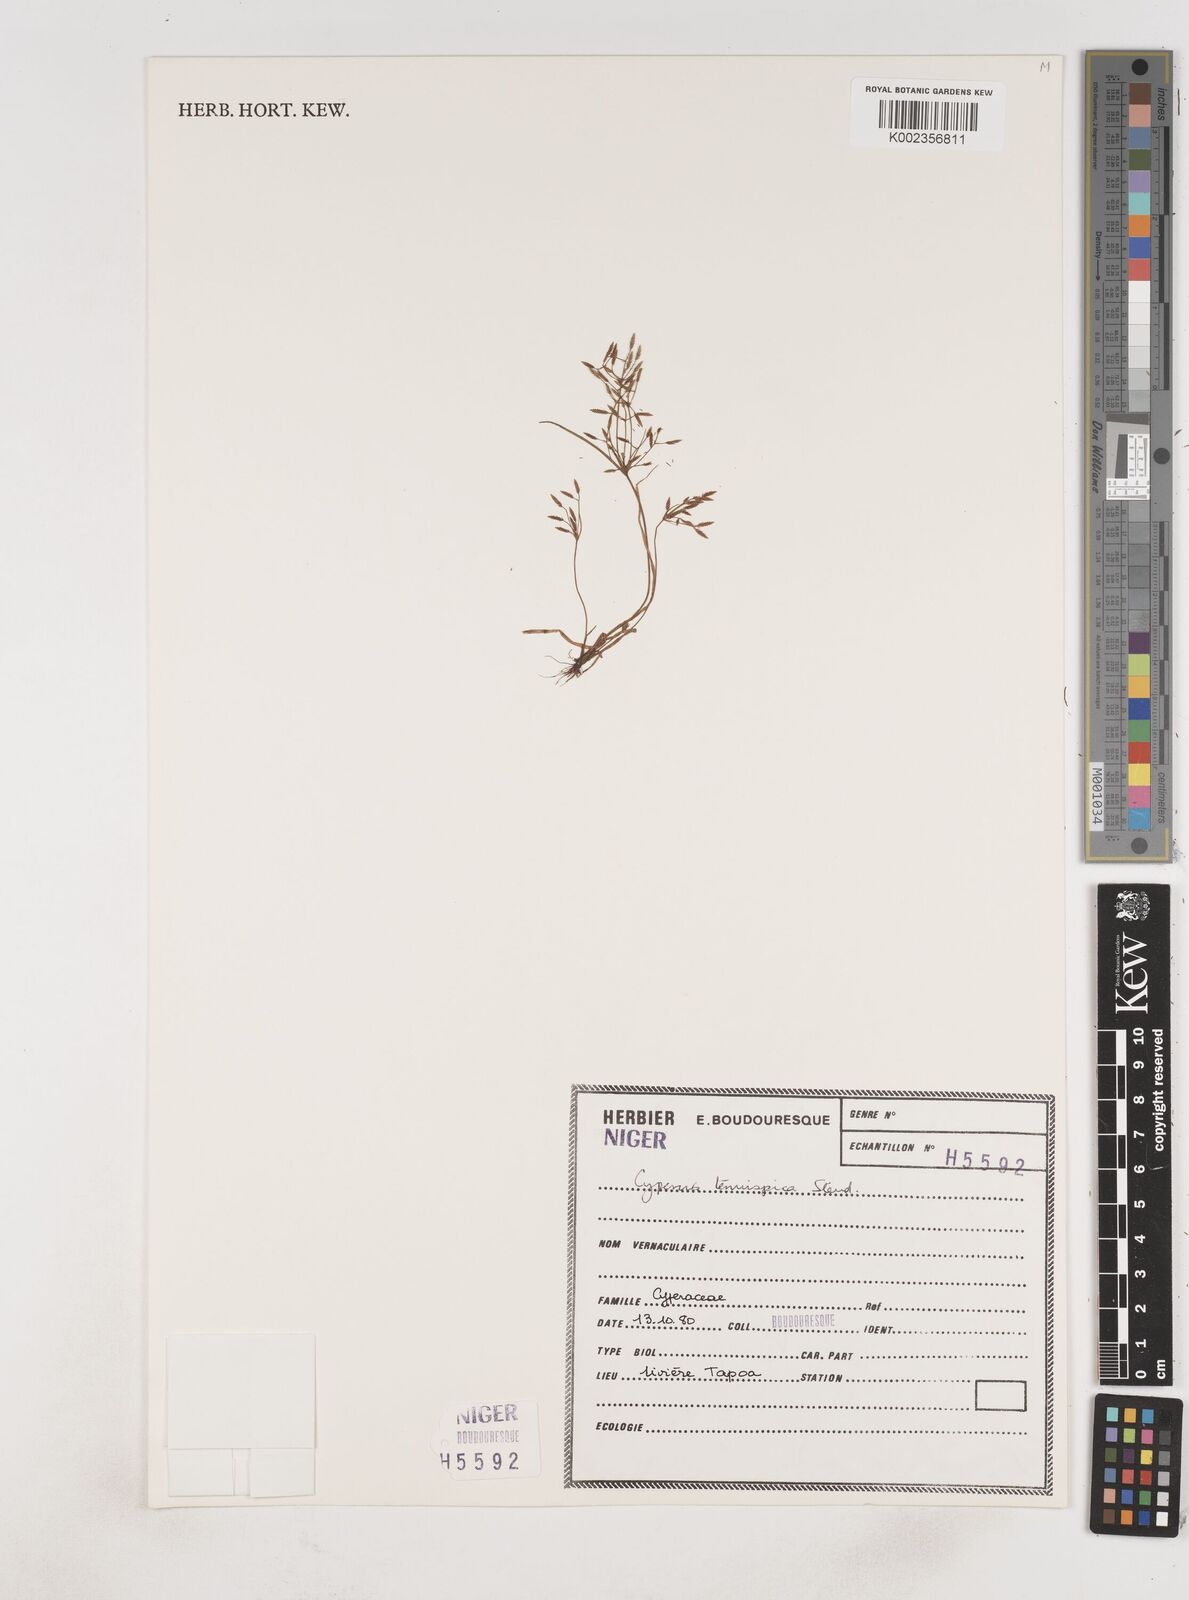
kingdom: Plantae
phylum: Tracheophyta
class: Liliopsida
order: Poales
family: Cyperaceae
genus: Cyperus
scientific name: Cyperus tenuispica
